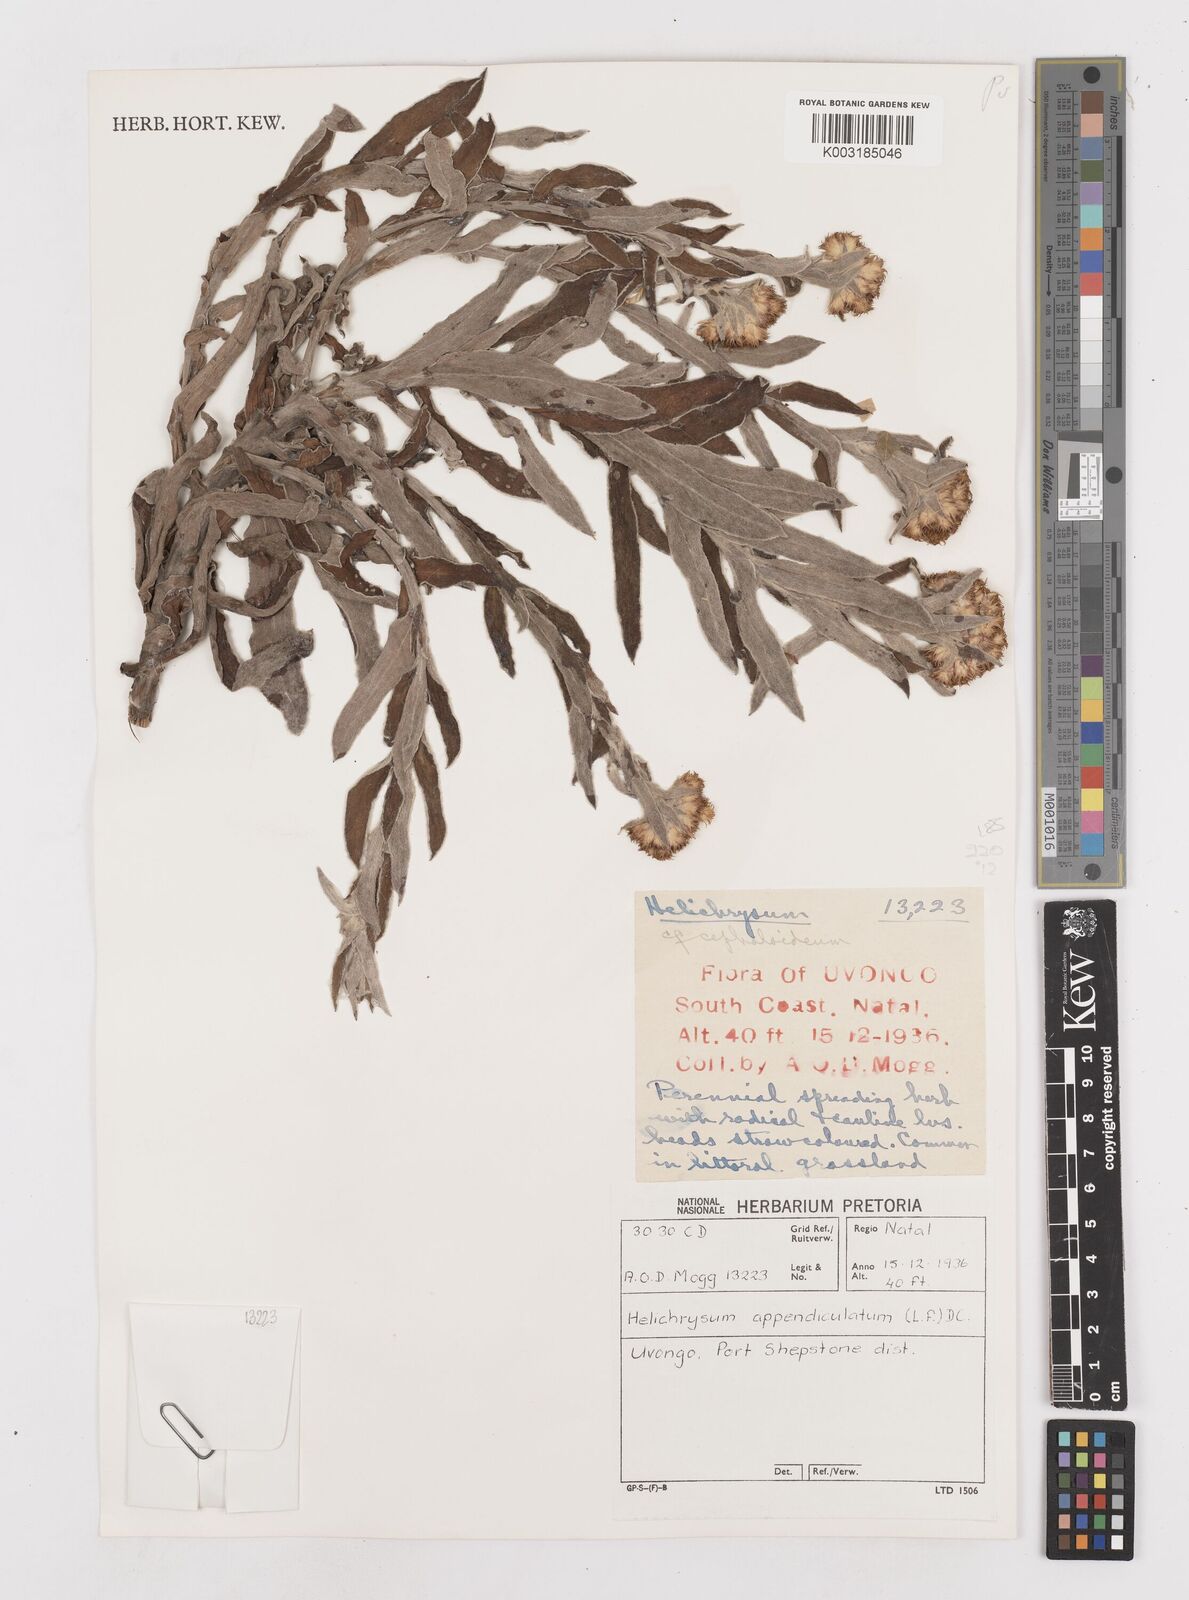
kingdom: Plantae
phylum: Tracheophyta
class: Magnoliopsida
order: Asterales
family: Asteraceae
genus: Helichrysum
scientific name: Helichrysum appendiculatum
